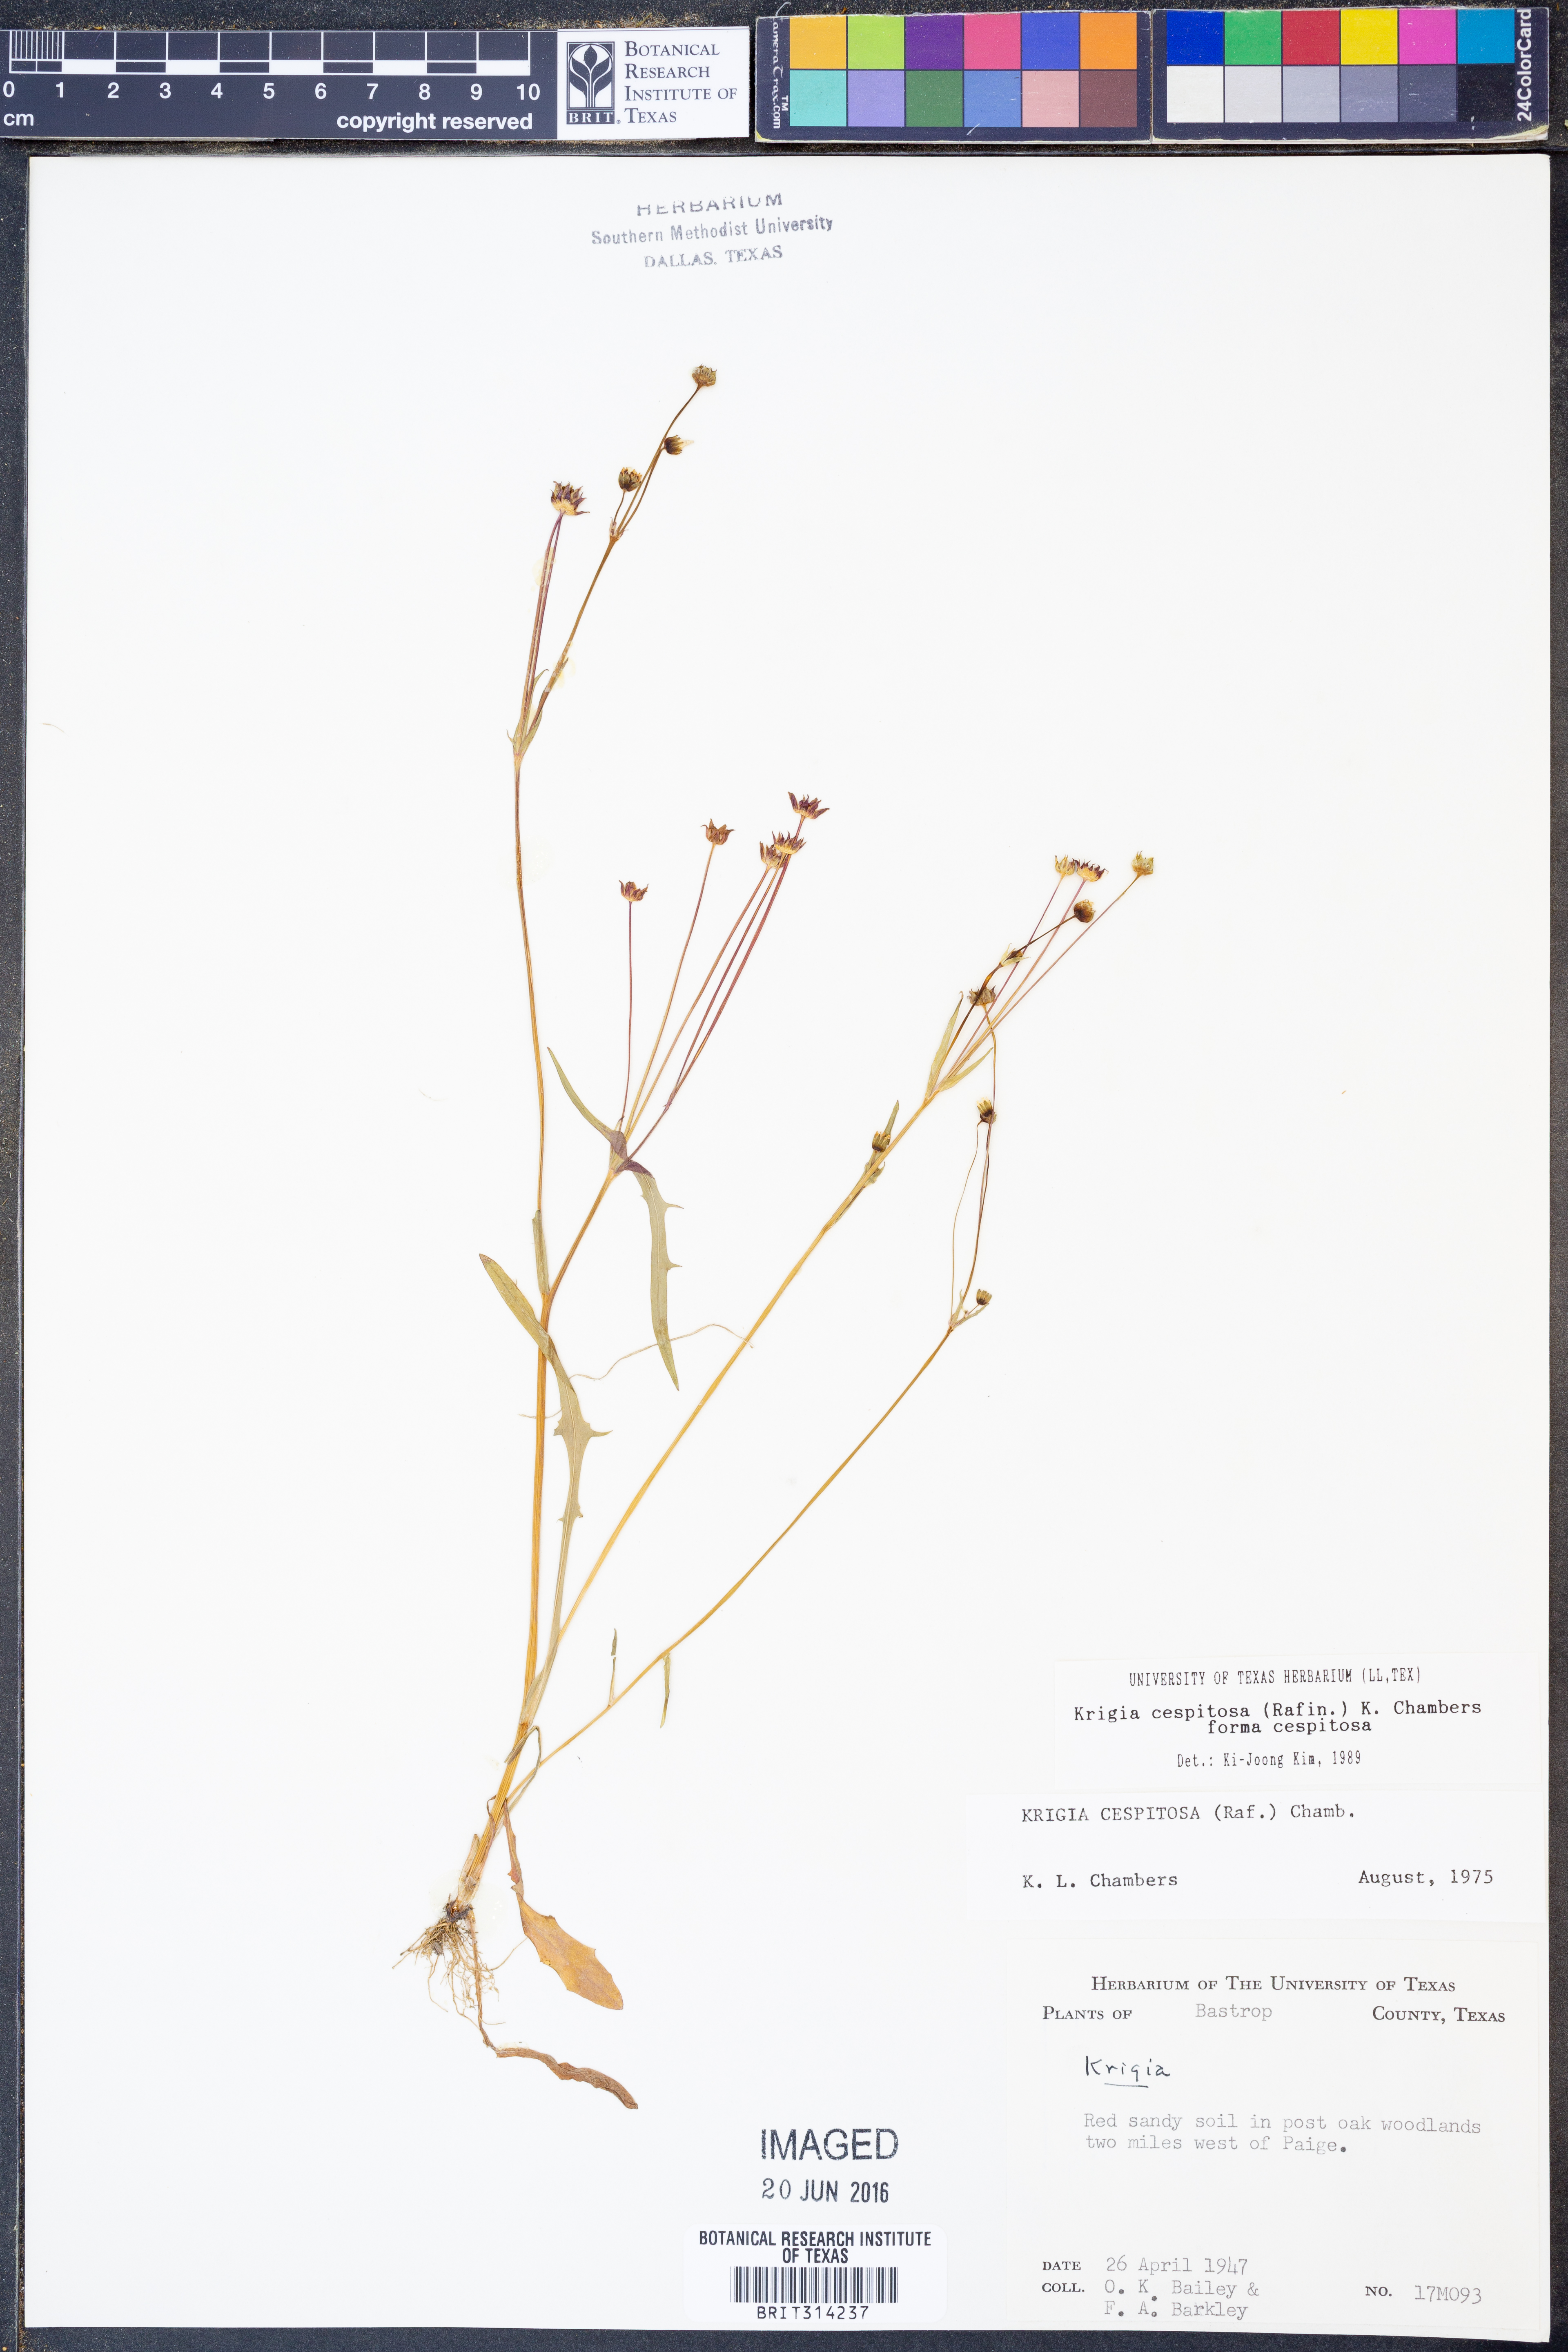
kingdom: Plantae
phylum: Tracheophyta
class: Magnoliopsida
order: Asterales
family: Asteraceae
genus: Krigia
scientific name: Krigia cespitosa
